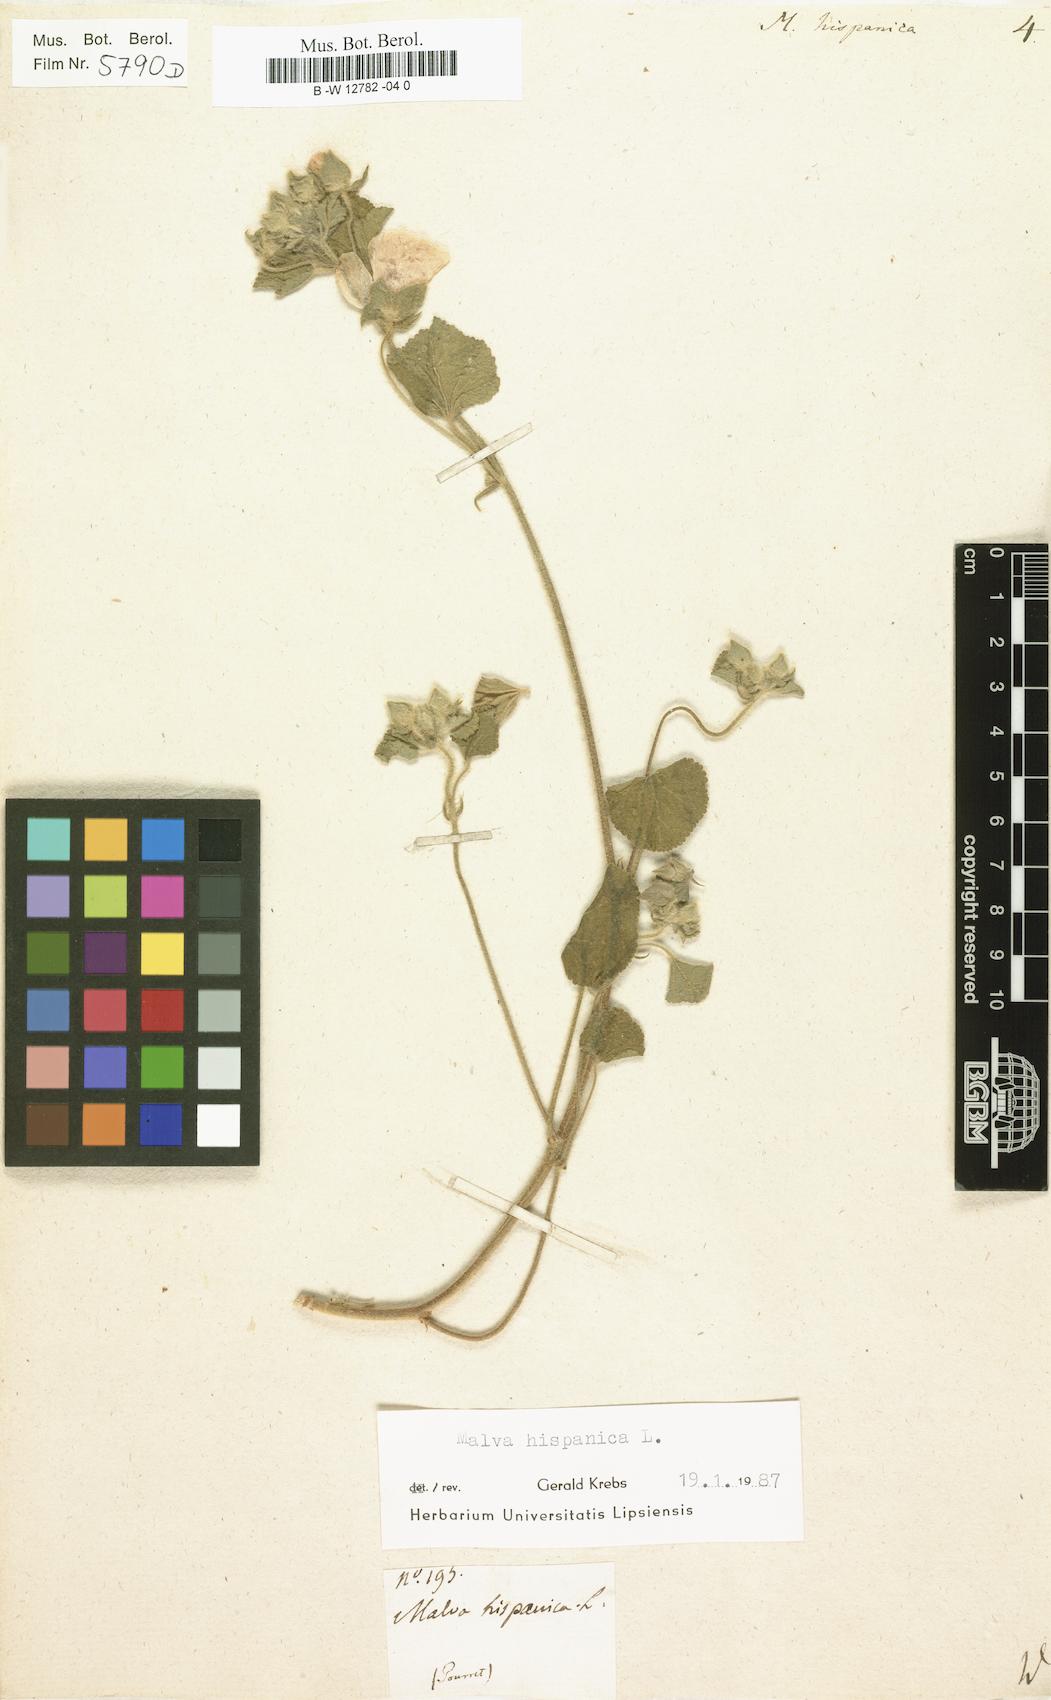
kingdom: Plantae
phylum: Tracheophyta
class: Magnoliopsida
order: Malvales
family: Malvaceae
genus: Malva
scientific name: Malva hispanica
